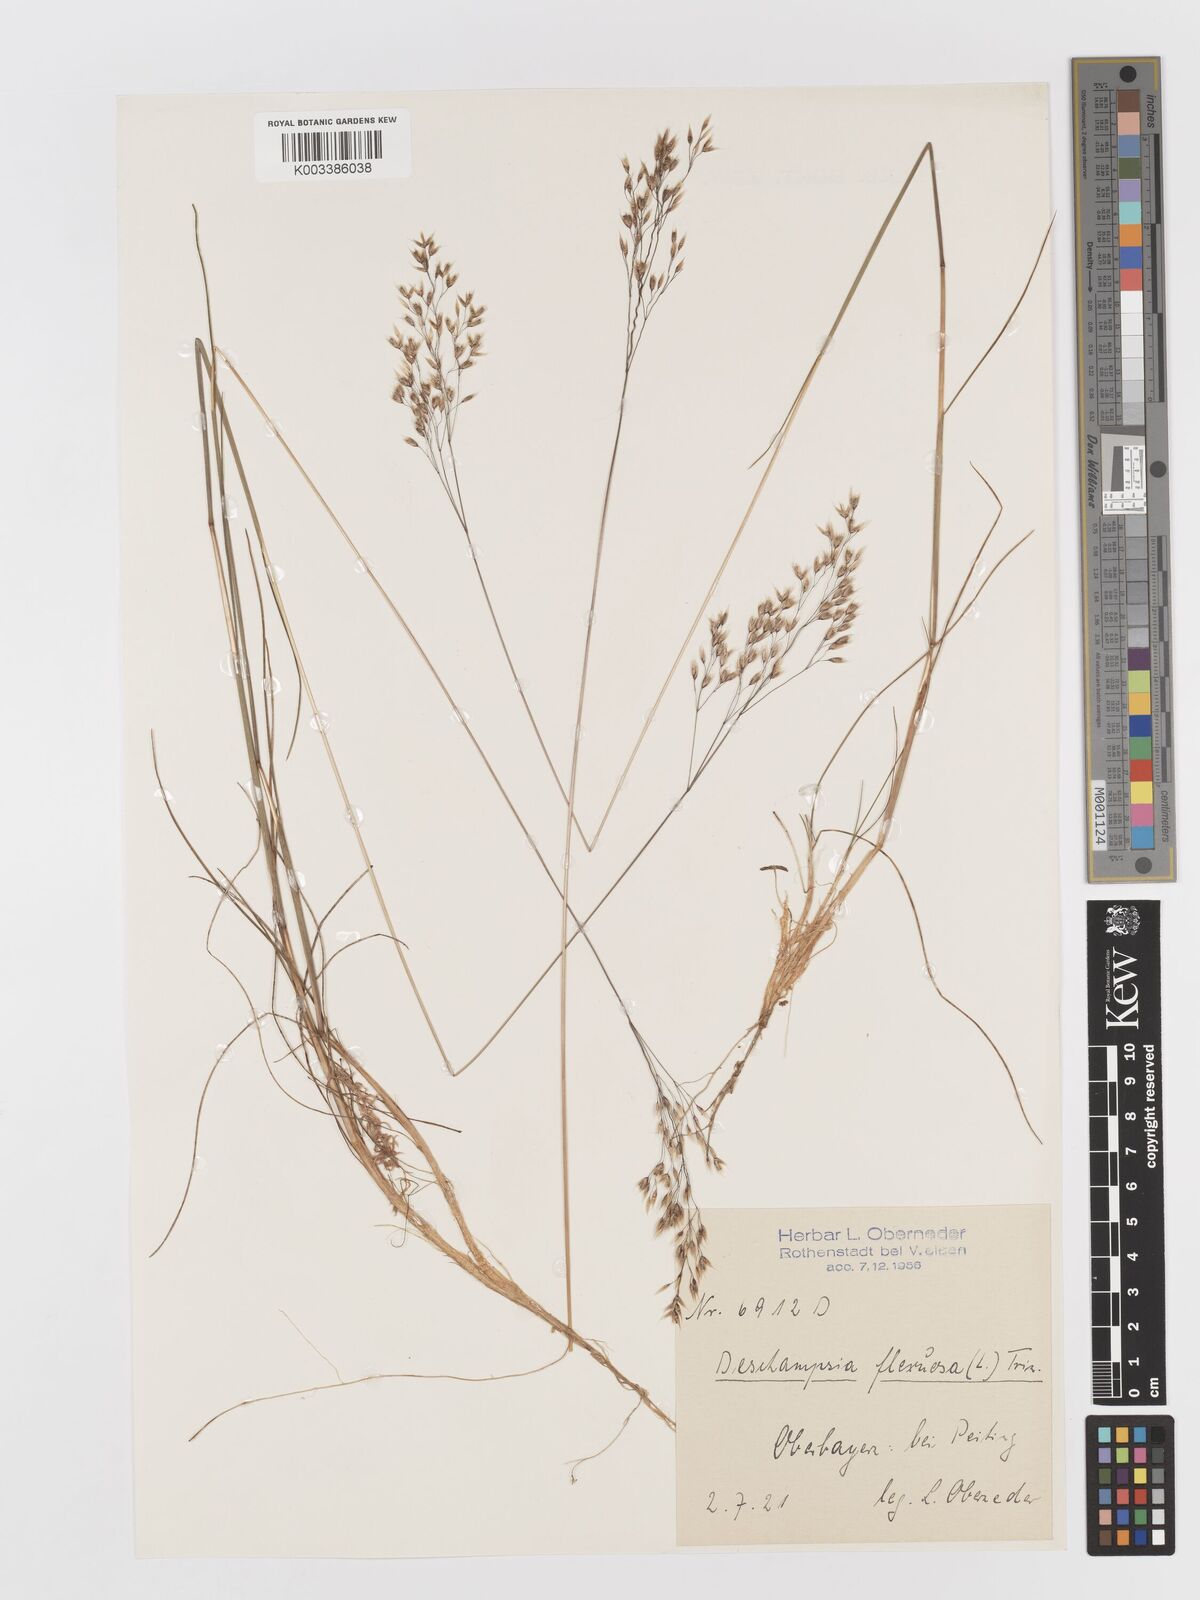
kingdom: Plantae
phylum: Tracheophyta
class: Liliopsida
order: Poales
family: Poaceae
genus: Avenella
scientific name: Avenella flexuosa
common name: Wavy hairgrass
